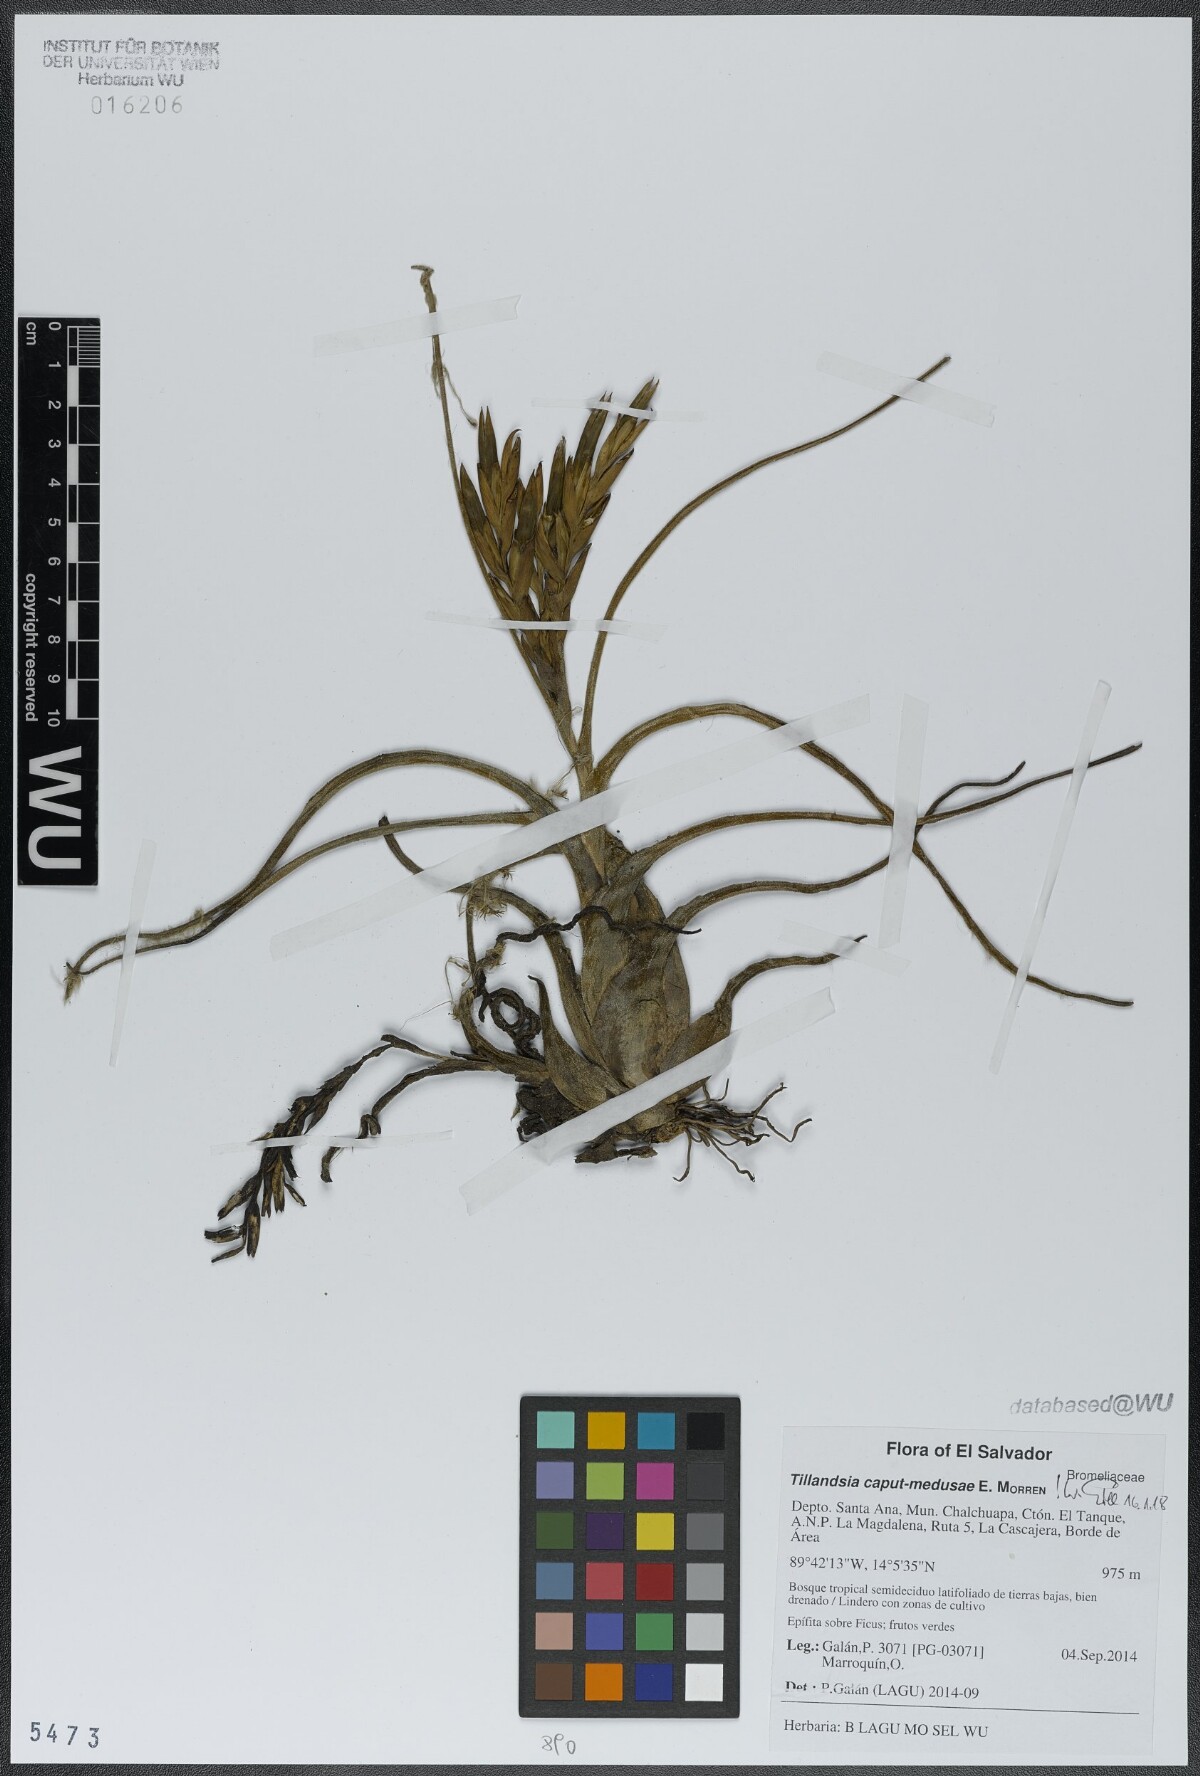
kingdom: Plantae
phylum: Tracheophyta
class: Liliopsida
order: Poales
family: Bromeliaceae
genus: Tillandsia
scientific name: Tillandsia caput-medusae
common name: Octopus plant
